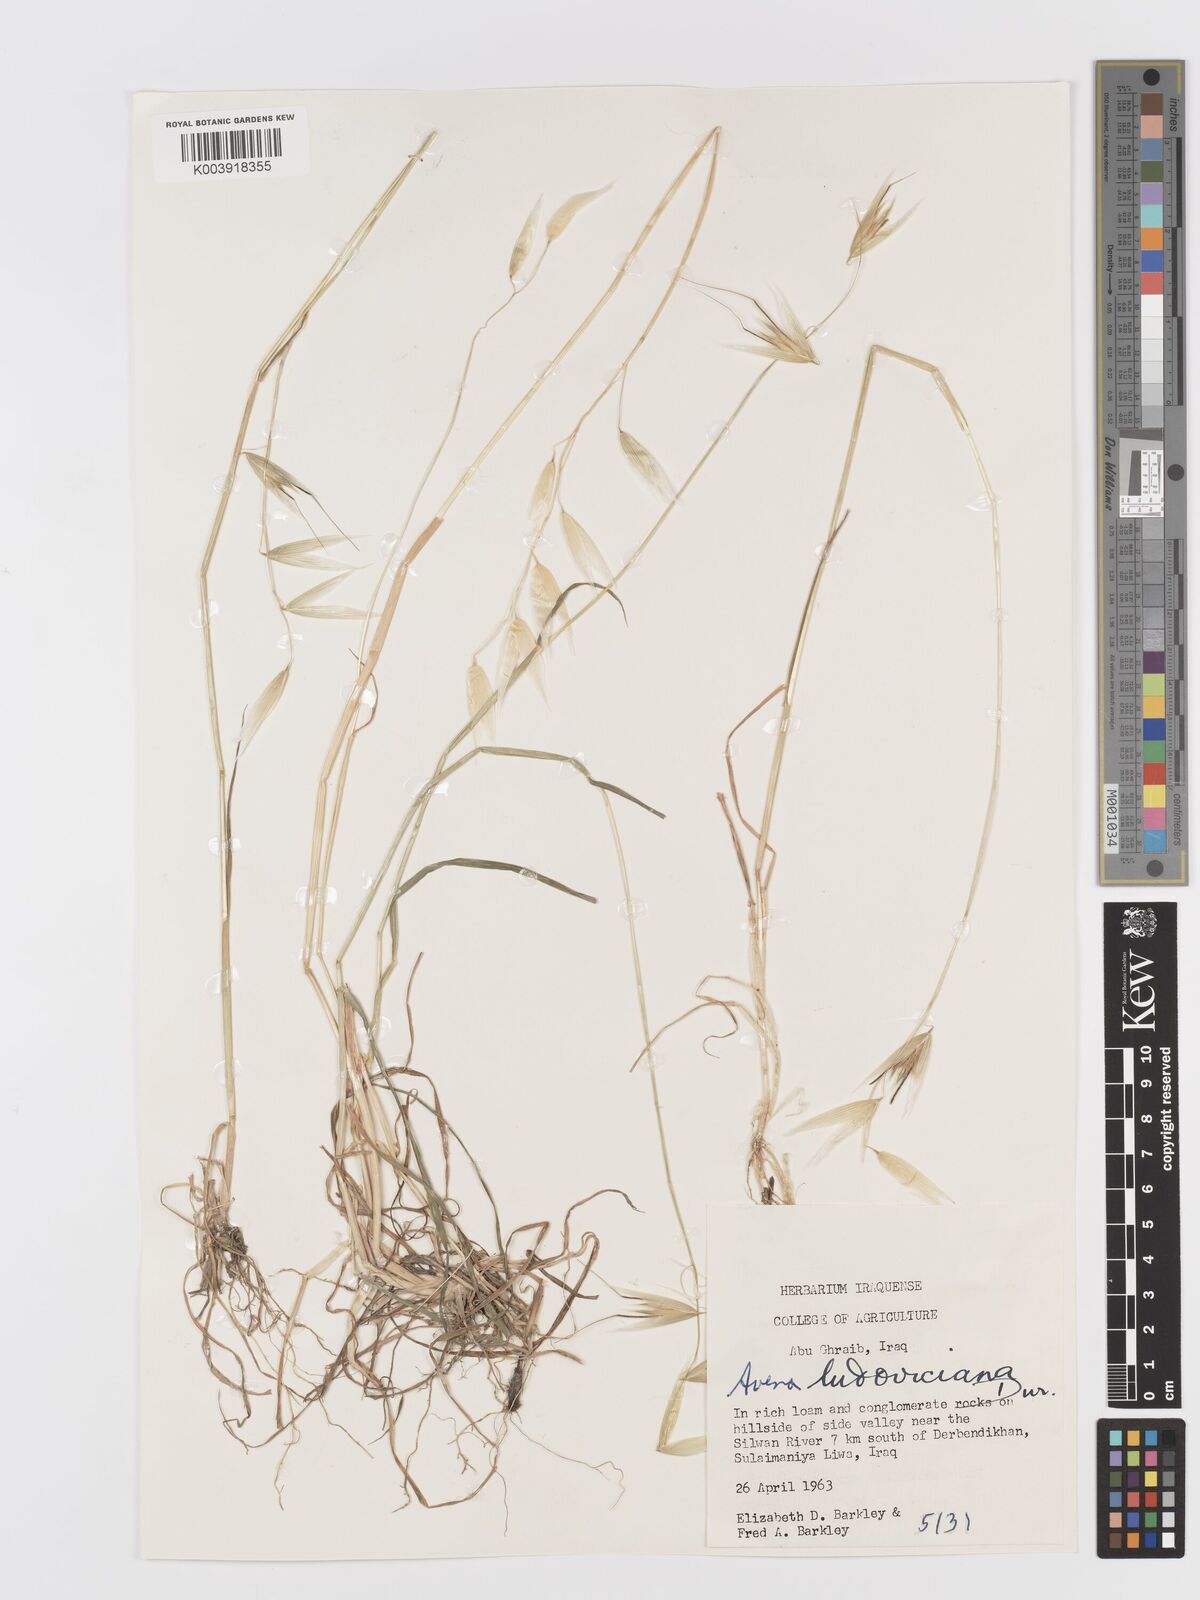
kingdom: Plantae
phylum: Tracheophyta
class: Liliopsida
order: Poales
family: Poaceae
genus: Avena
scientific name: Avena sterilis
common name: Animated oat
